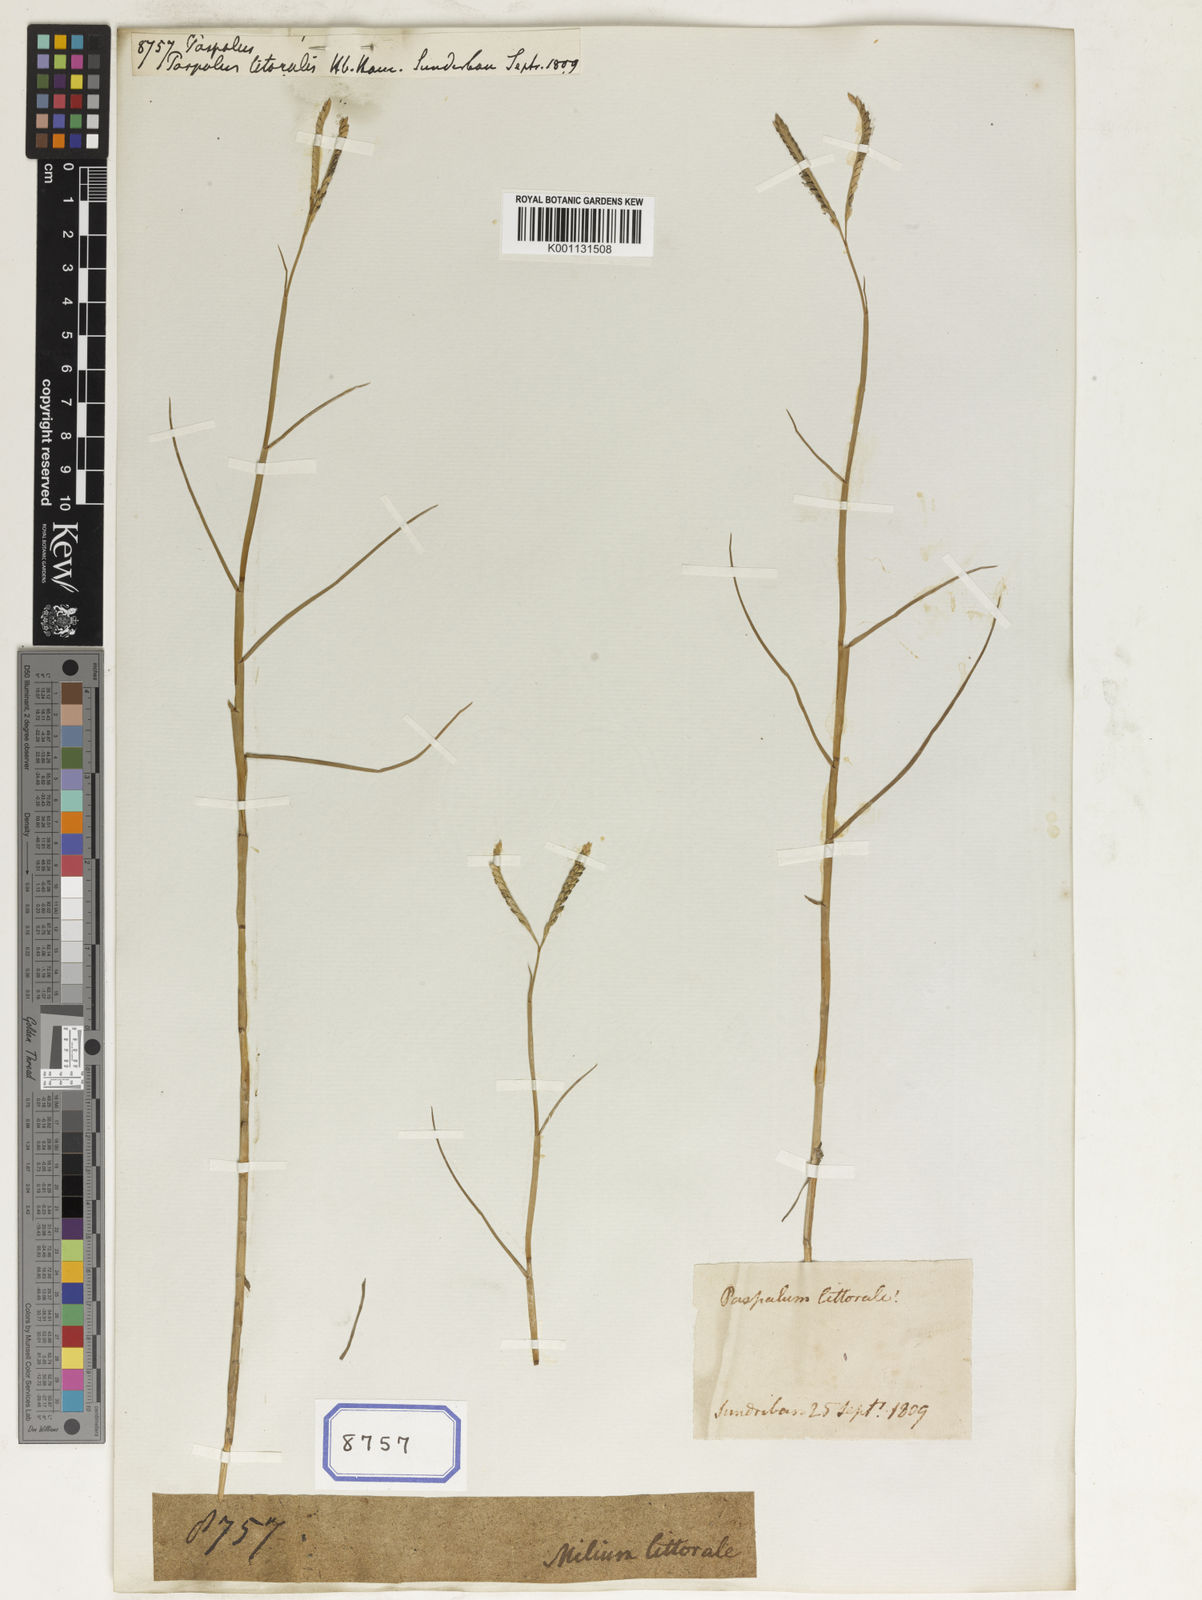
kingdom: Plantae
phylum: Tracheophyta
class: Liliopsida
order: Poales
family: Poaceae
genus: Paspalum
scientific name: Paspalum
